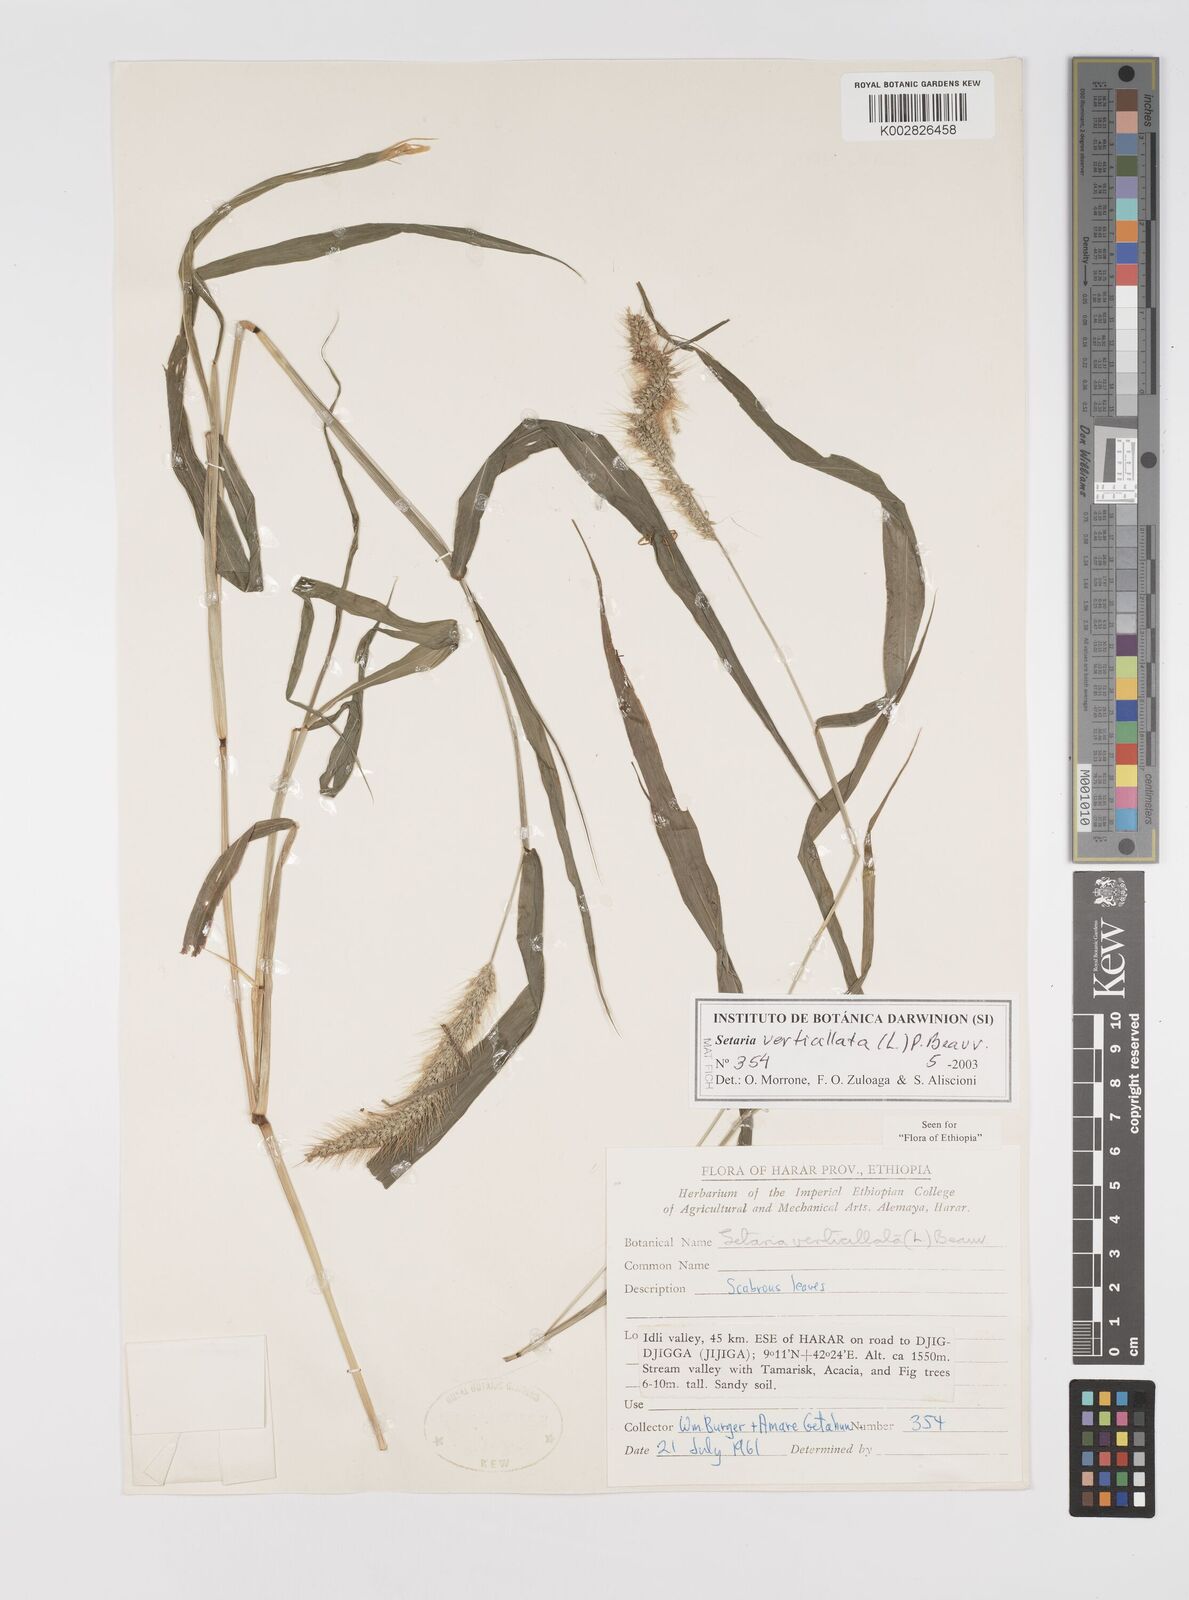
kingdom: Plantae
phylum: Tracheophyta
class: Liliopsida
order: Poales
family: Poaceae
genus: Setaria
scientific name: Setaria verticillata
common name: Hooked bristlegrass
